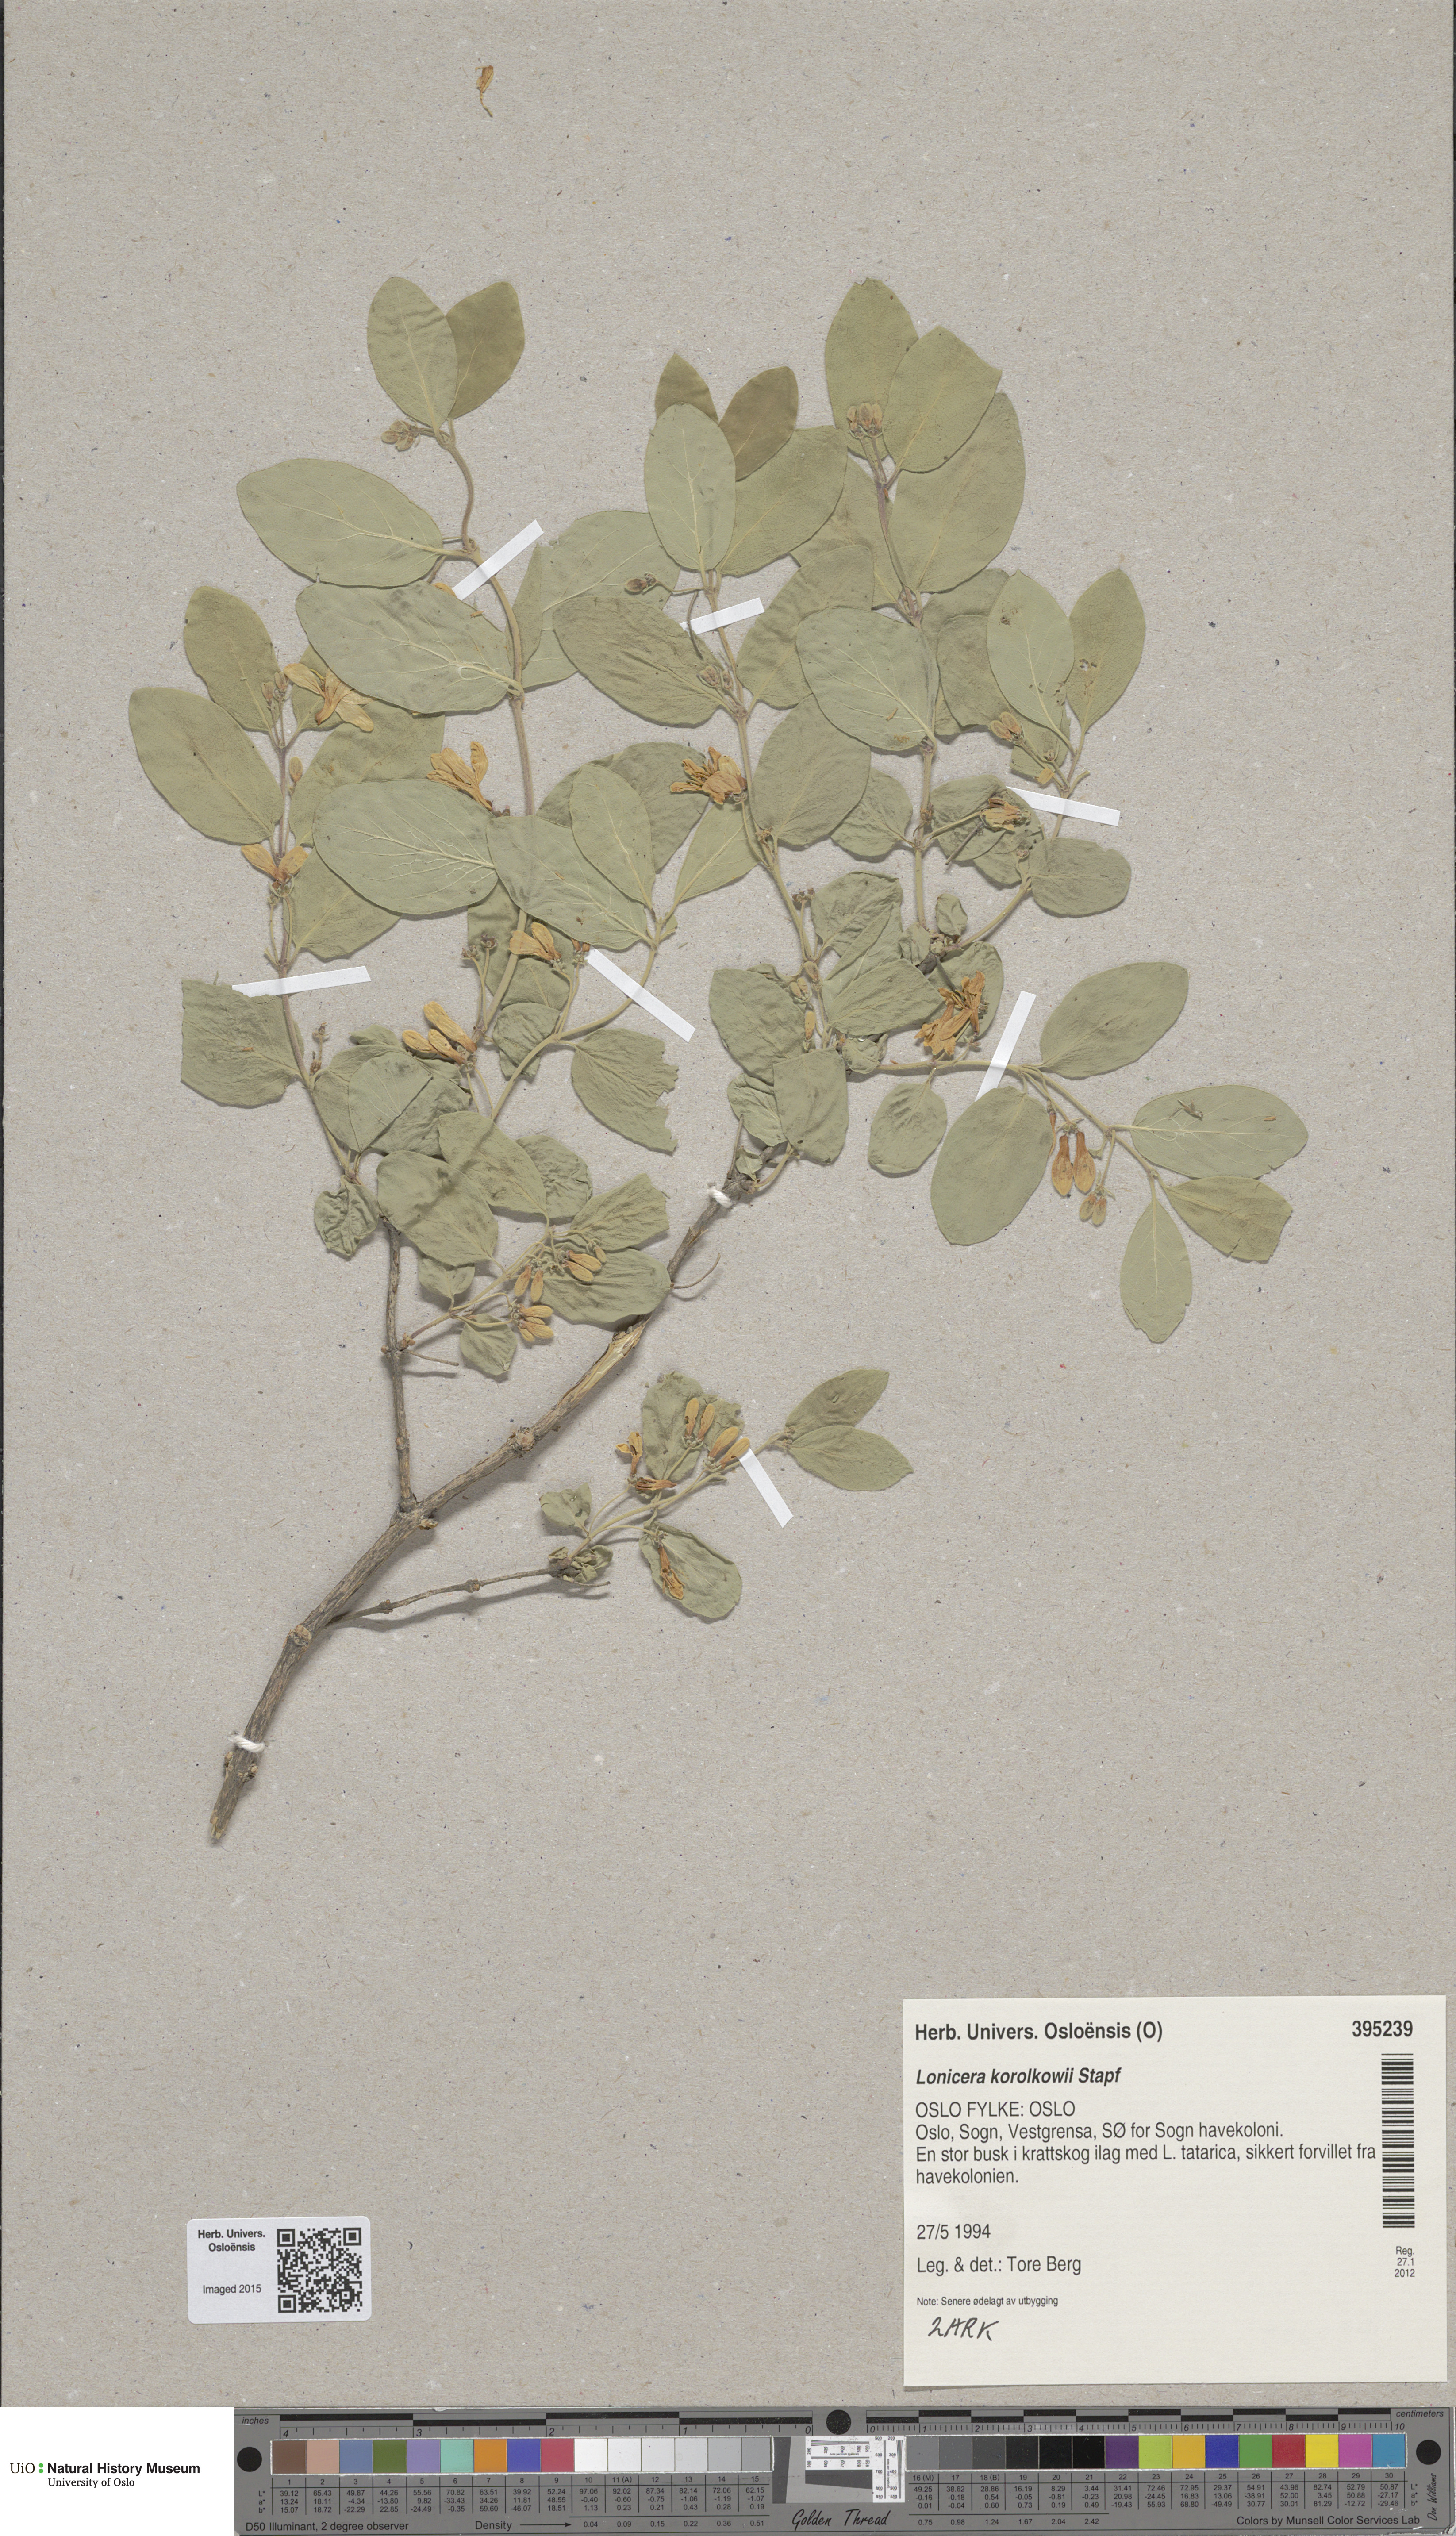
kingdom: Plantae
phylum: Tracheophyta
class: Magnoliopsida
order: Dipsacales
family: Caprifoliaceae
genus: Lonicera
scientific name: Lonicera korolkowii
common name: Blueleaf honeysuckle
